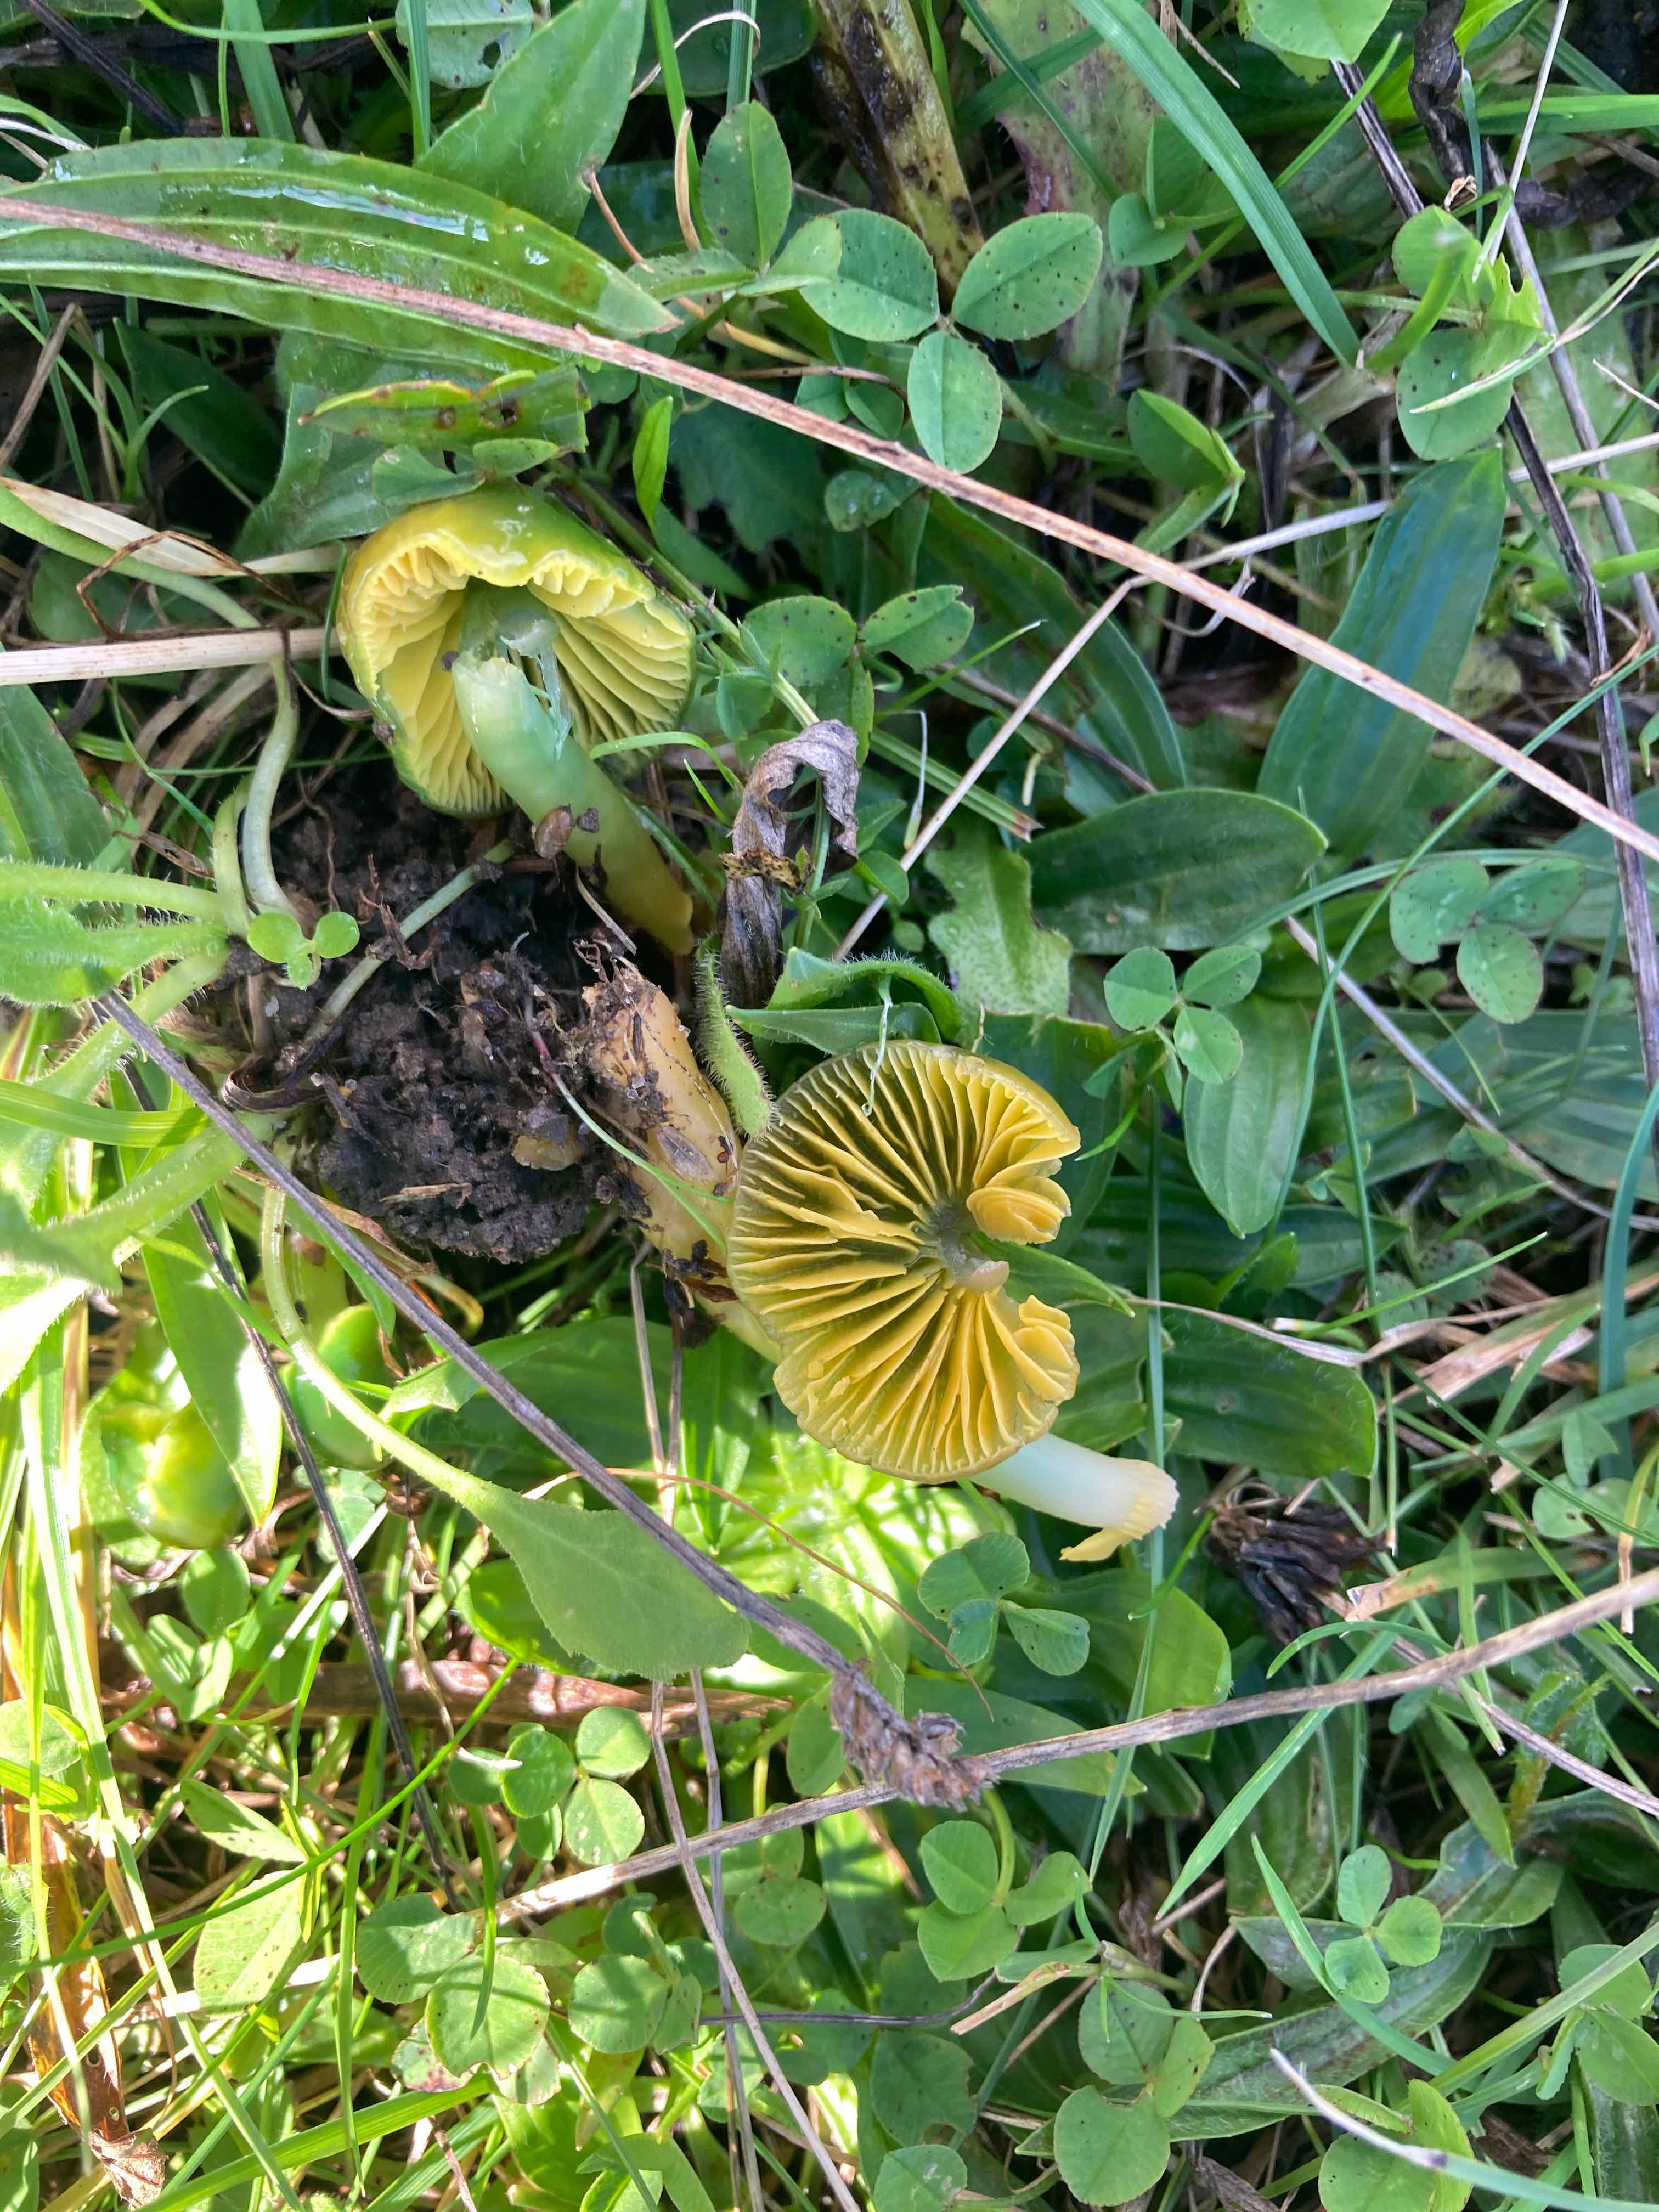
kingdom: Fungi
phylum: Basidiomycota
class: Agaricomycetes
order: Agaricales
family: Hygrophoraceae
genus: Gliophorus
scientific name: Gliophorus psittacinus
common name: papegøje-vokshat
